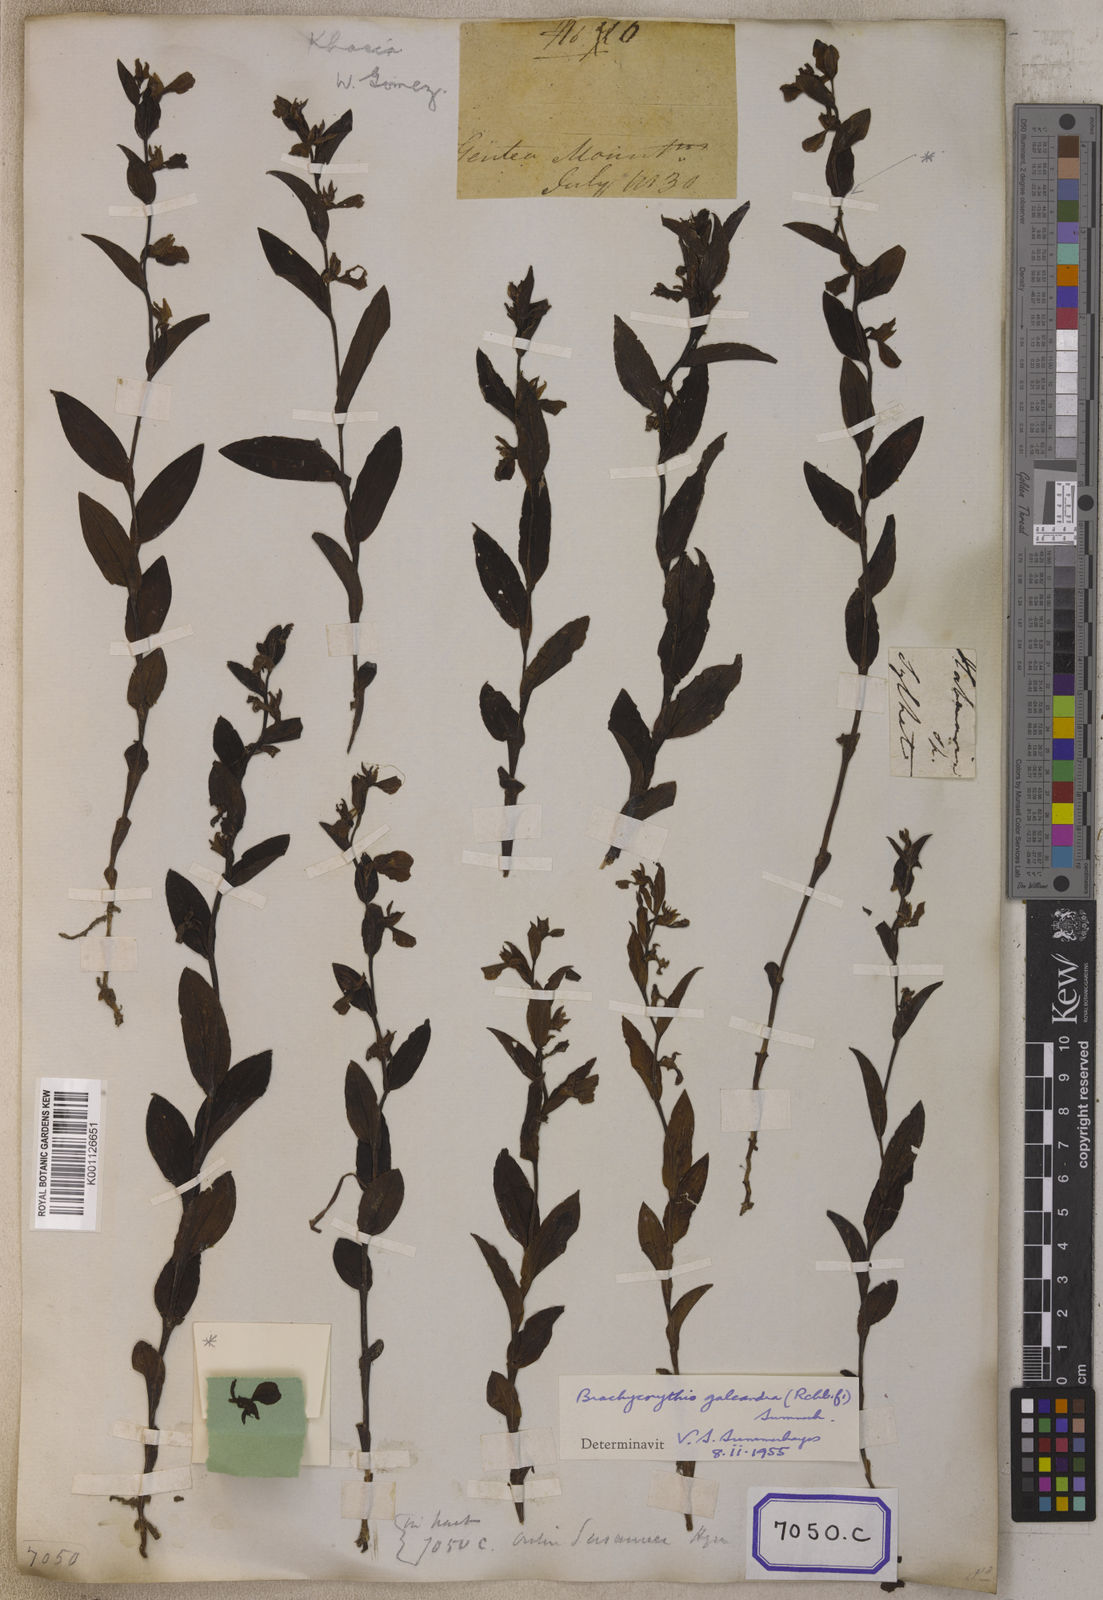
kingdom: Plantae
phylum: Tracheophyta
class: Liliopsida
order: Asparagales
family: Orchidaceae
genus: Platanthera
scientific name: Platanthera
